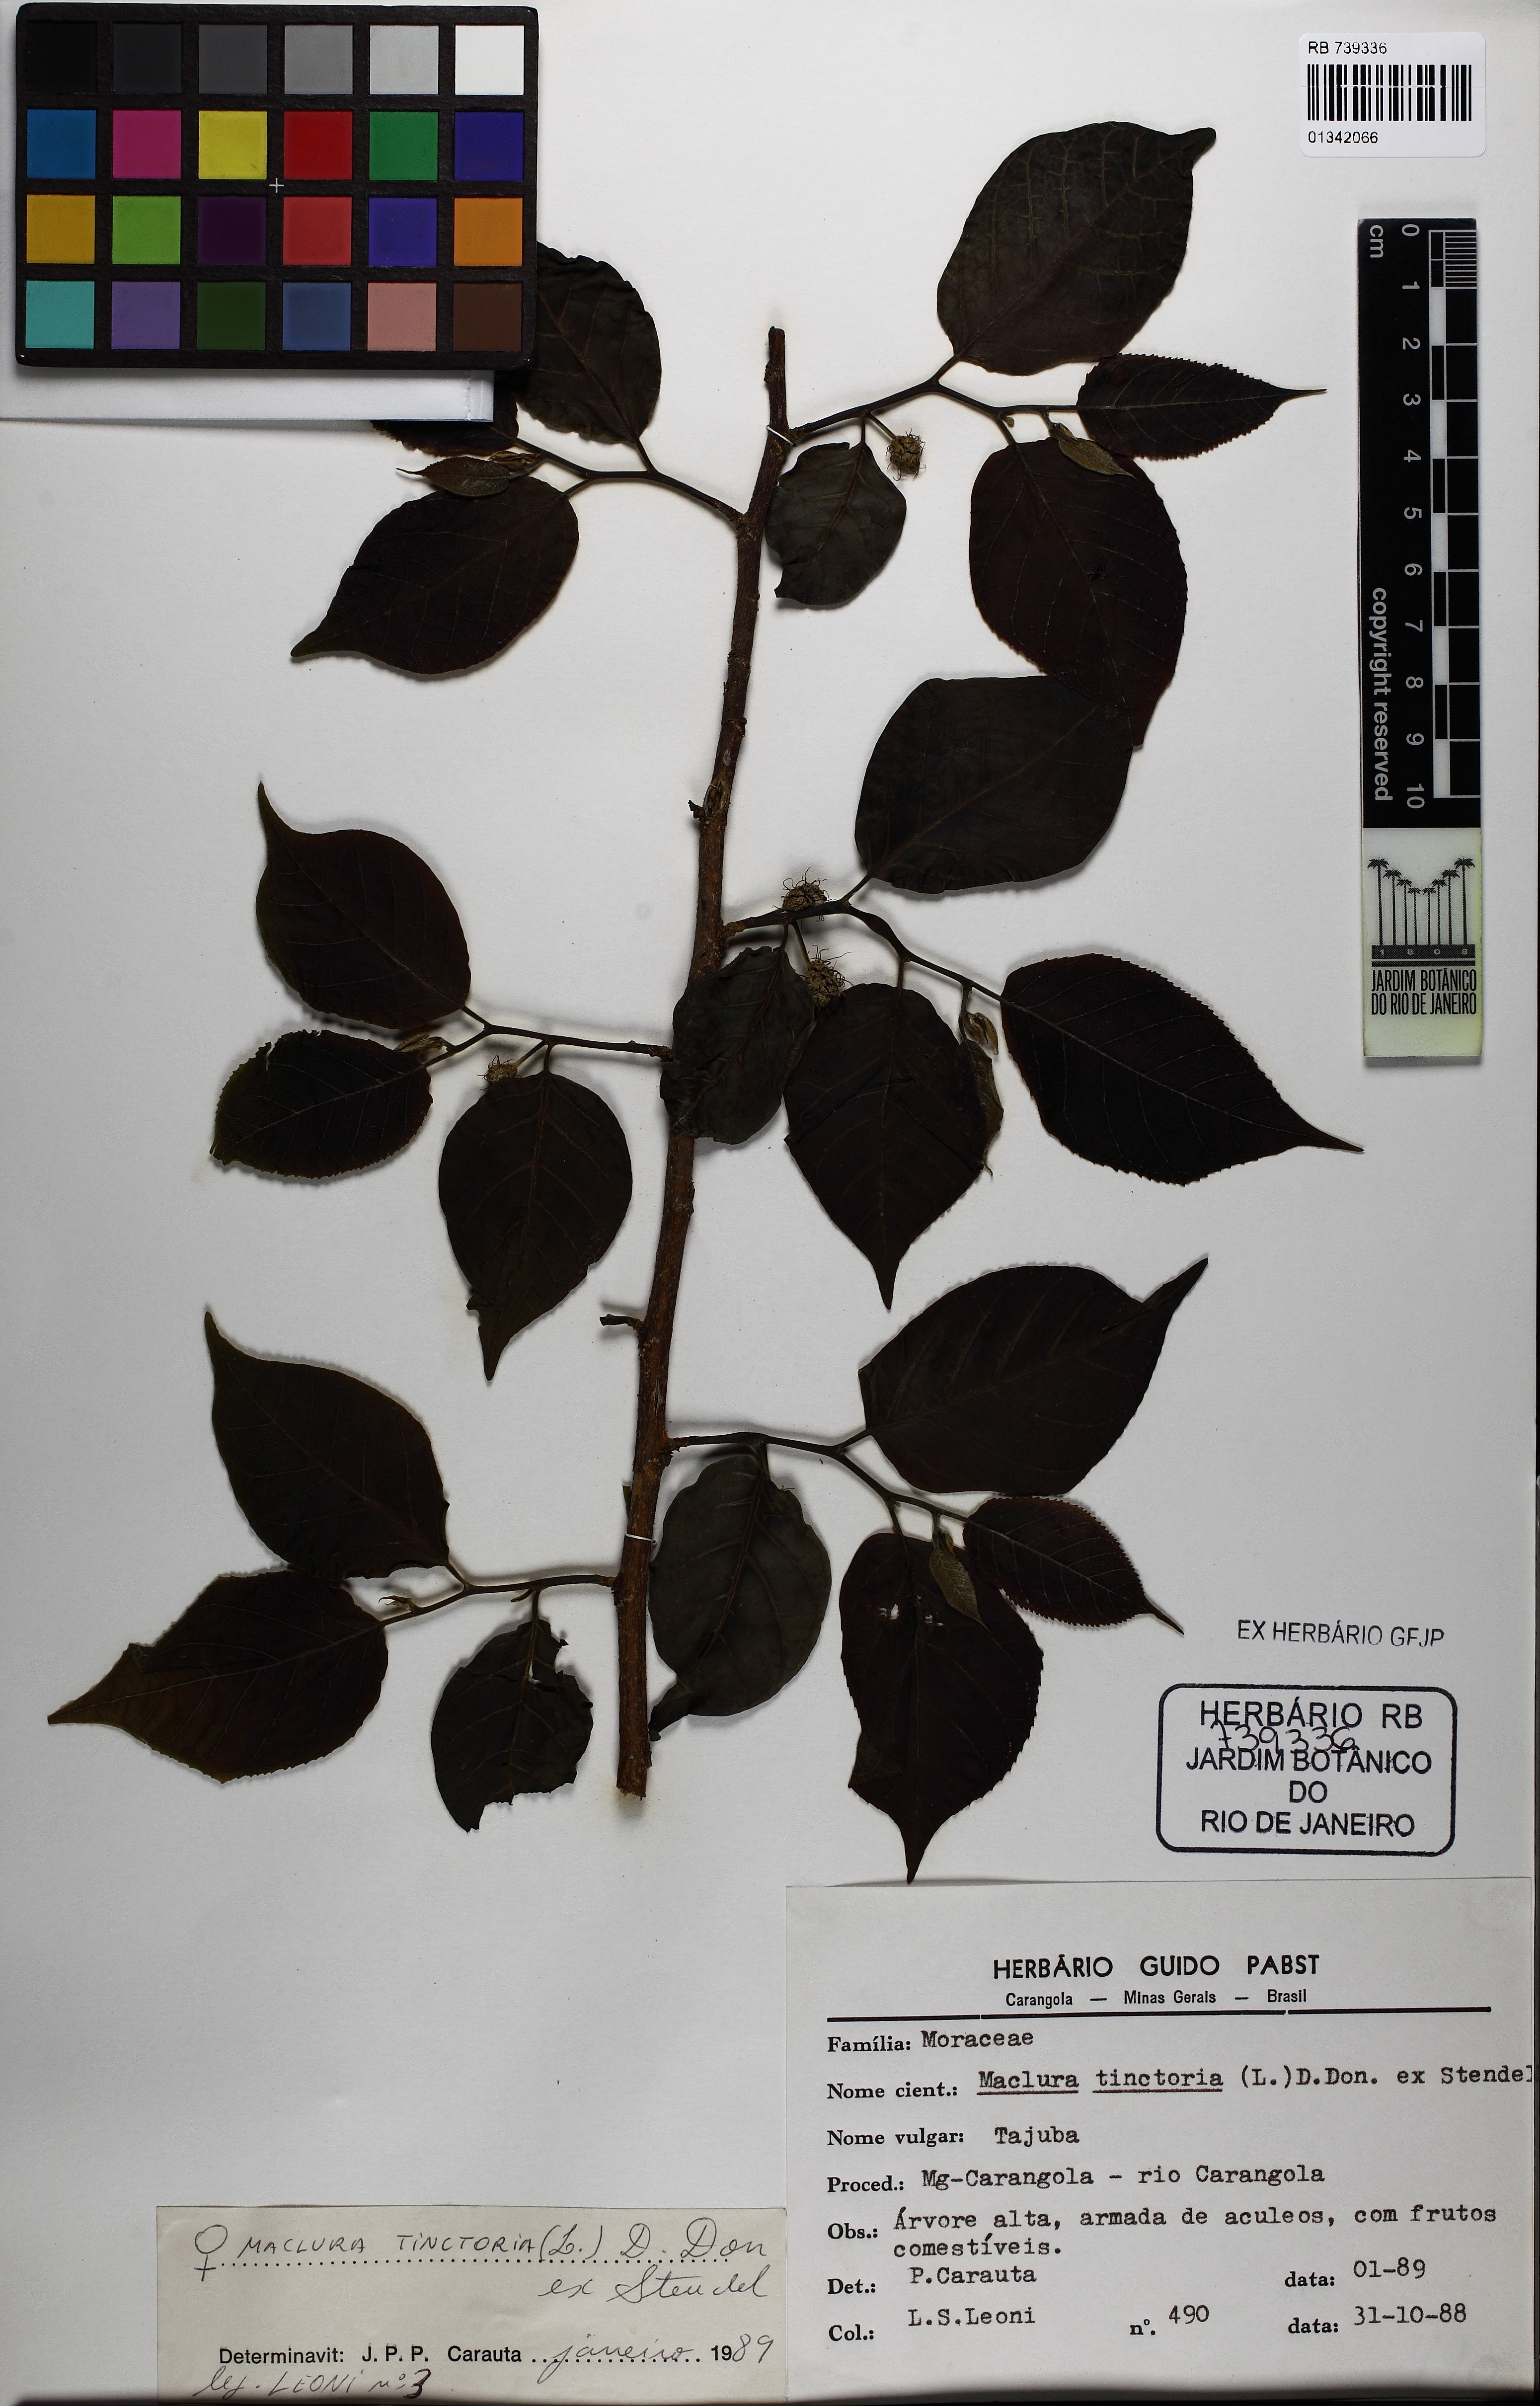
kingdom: Plantae
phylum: Tracheophyta
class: Magnoliopsida
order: Rosales
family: Moraceae
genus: Maclura
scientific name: Maclura tinctoria
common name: Old fustic
